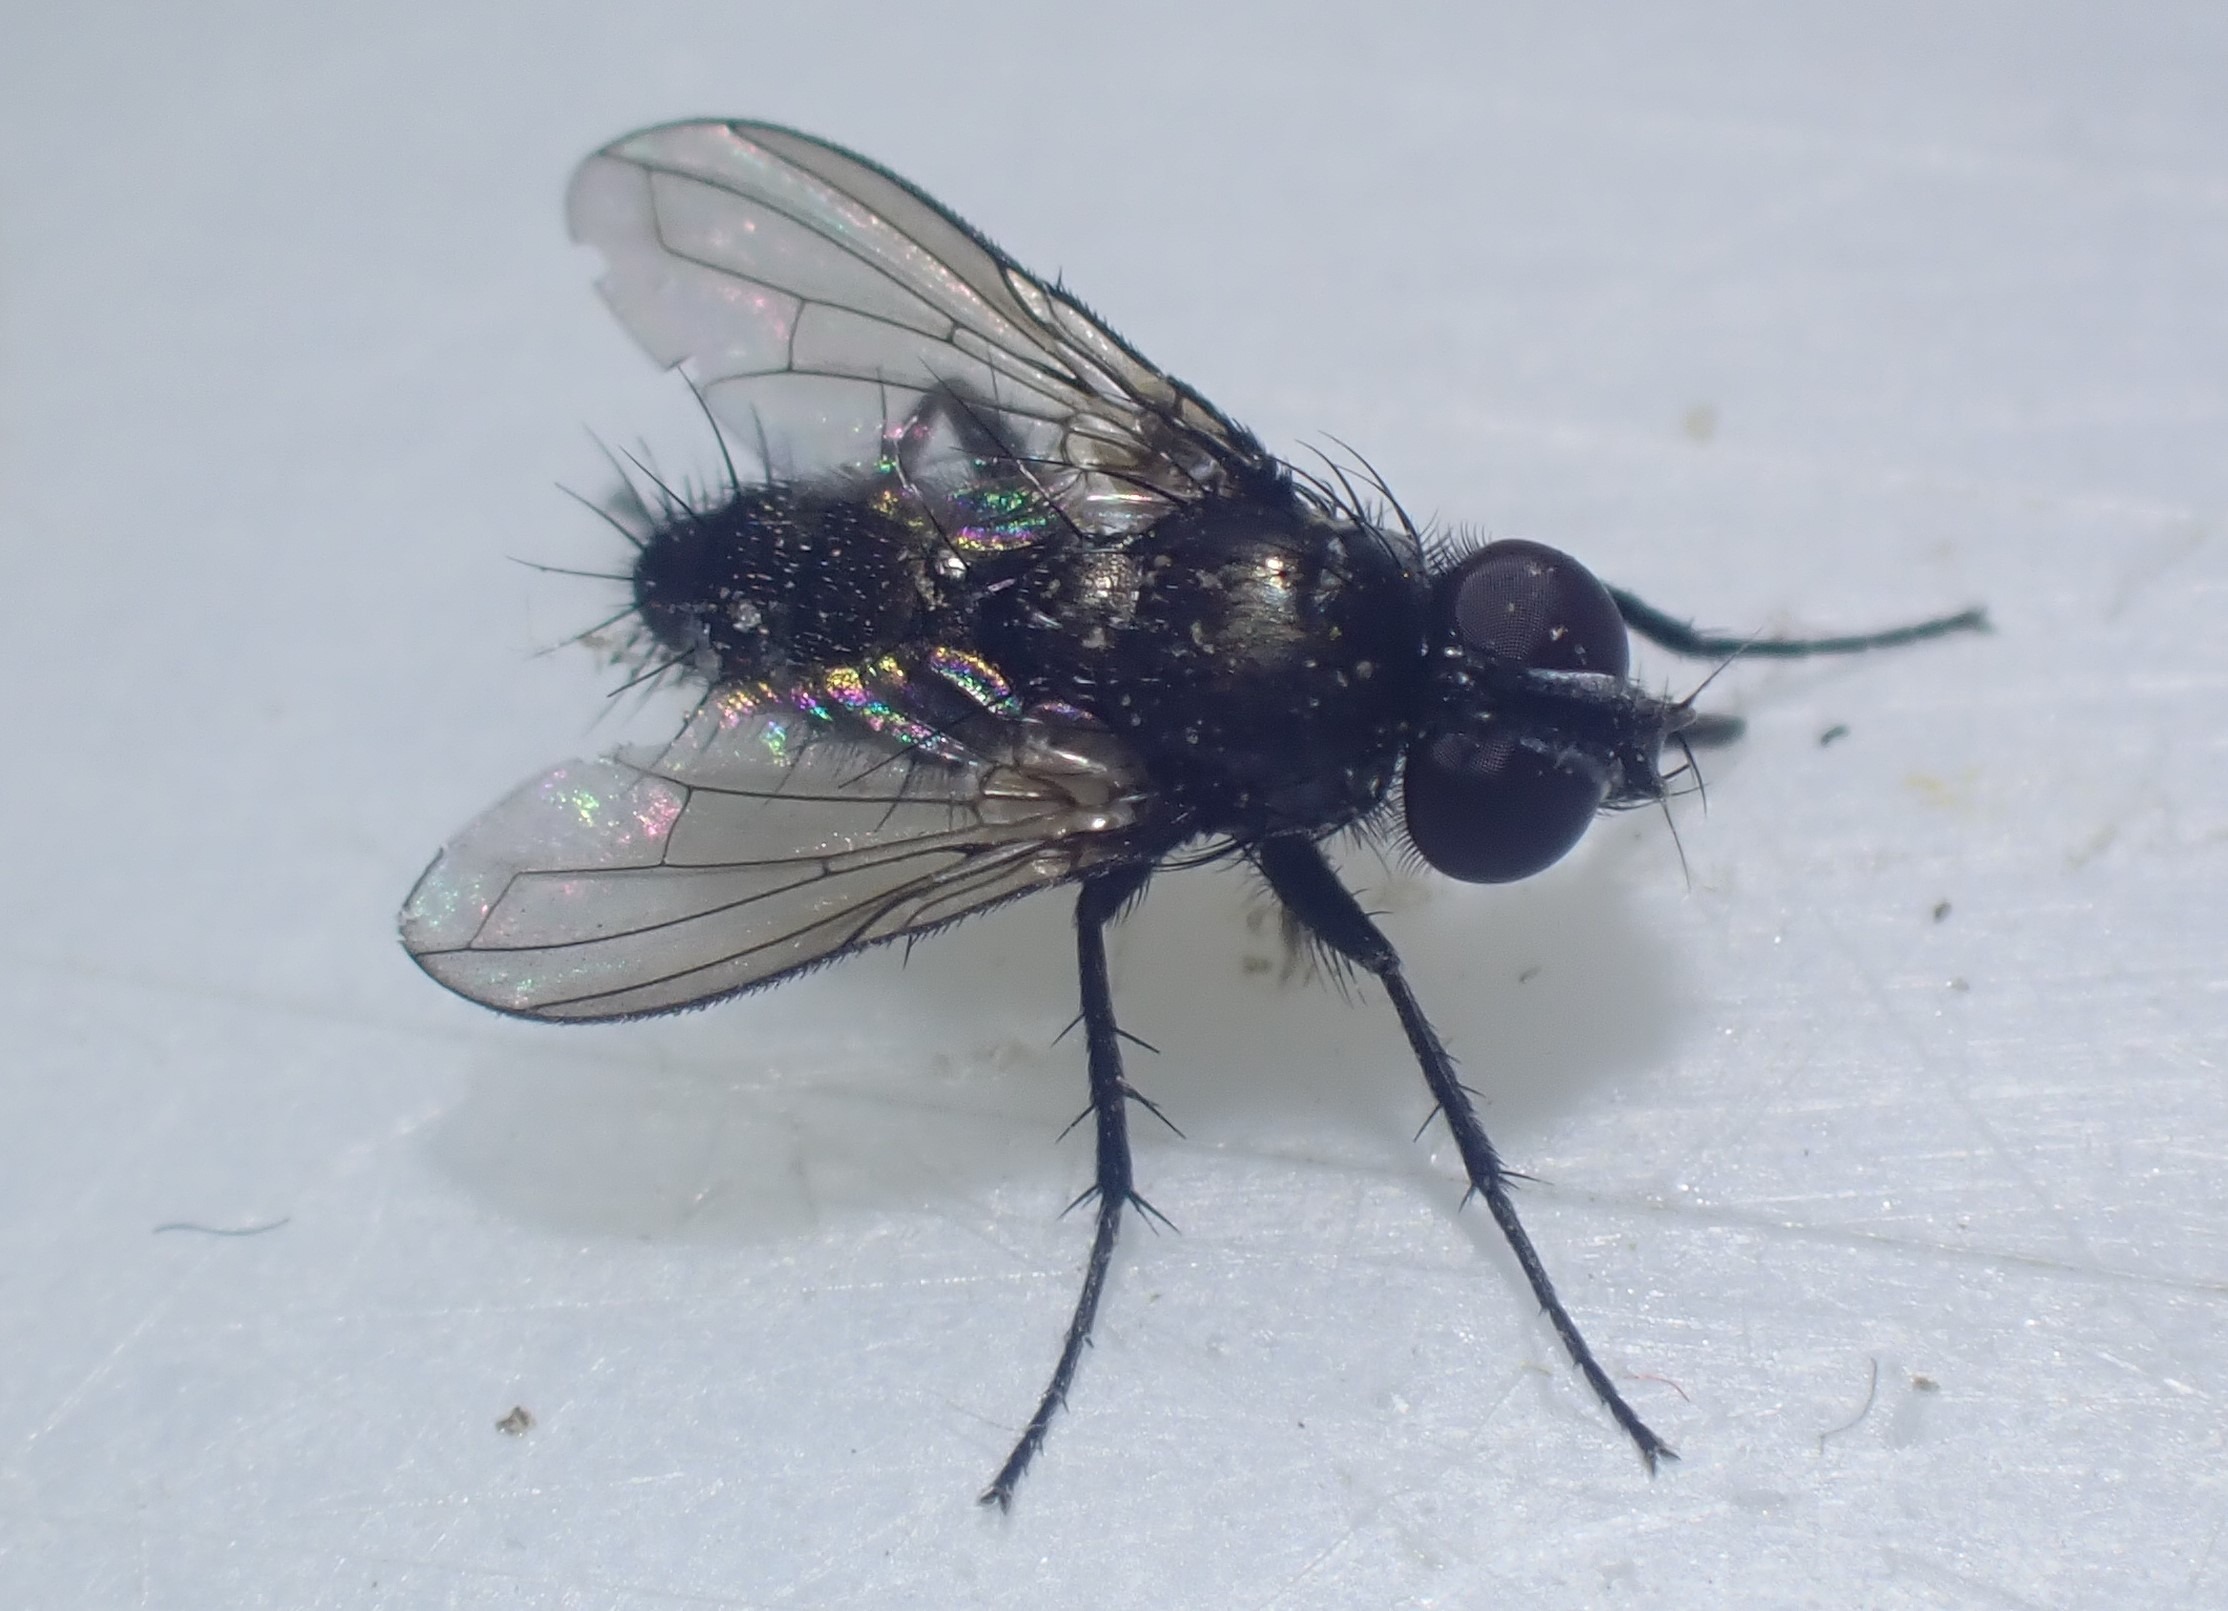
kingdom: Animalia
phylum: Arthropoda
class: Insecta
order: Diptera
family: Calliphoridae
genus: Rhinophora
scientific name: Rhinophora lepida
